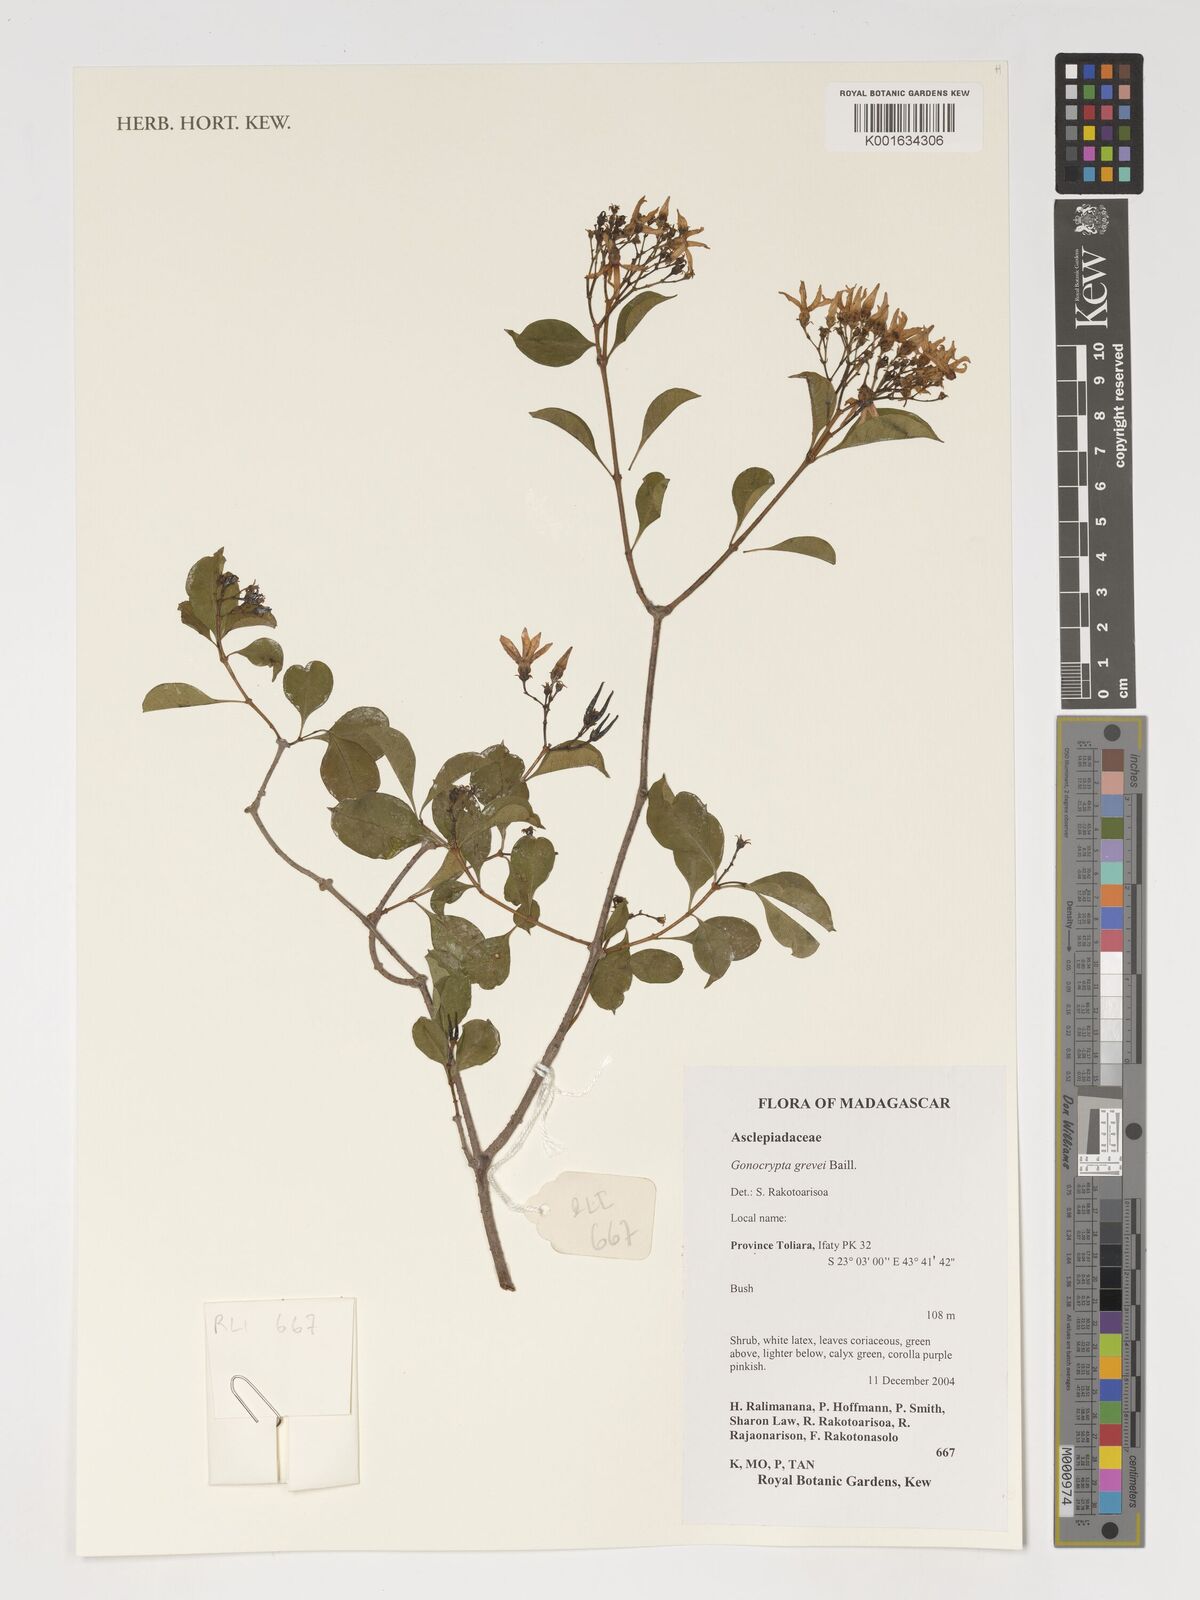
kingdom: Plantae
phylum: Tracheophyta
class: Magnoliopsida
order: Gentianales
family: Apocynaceae
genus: Pentopetia
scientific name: Pentopetia grevei
